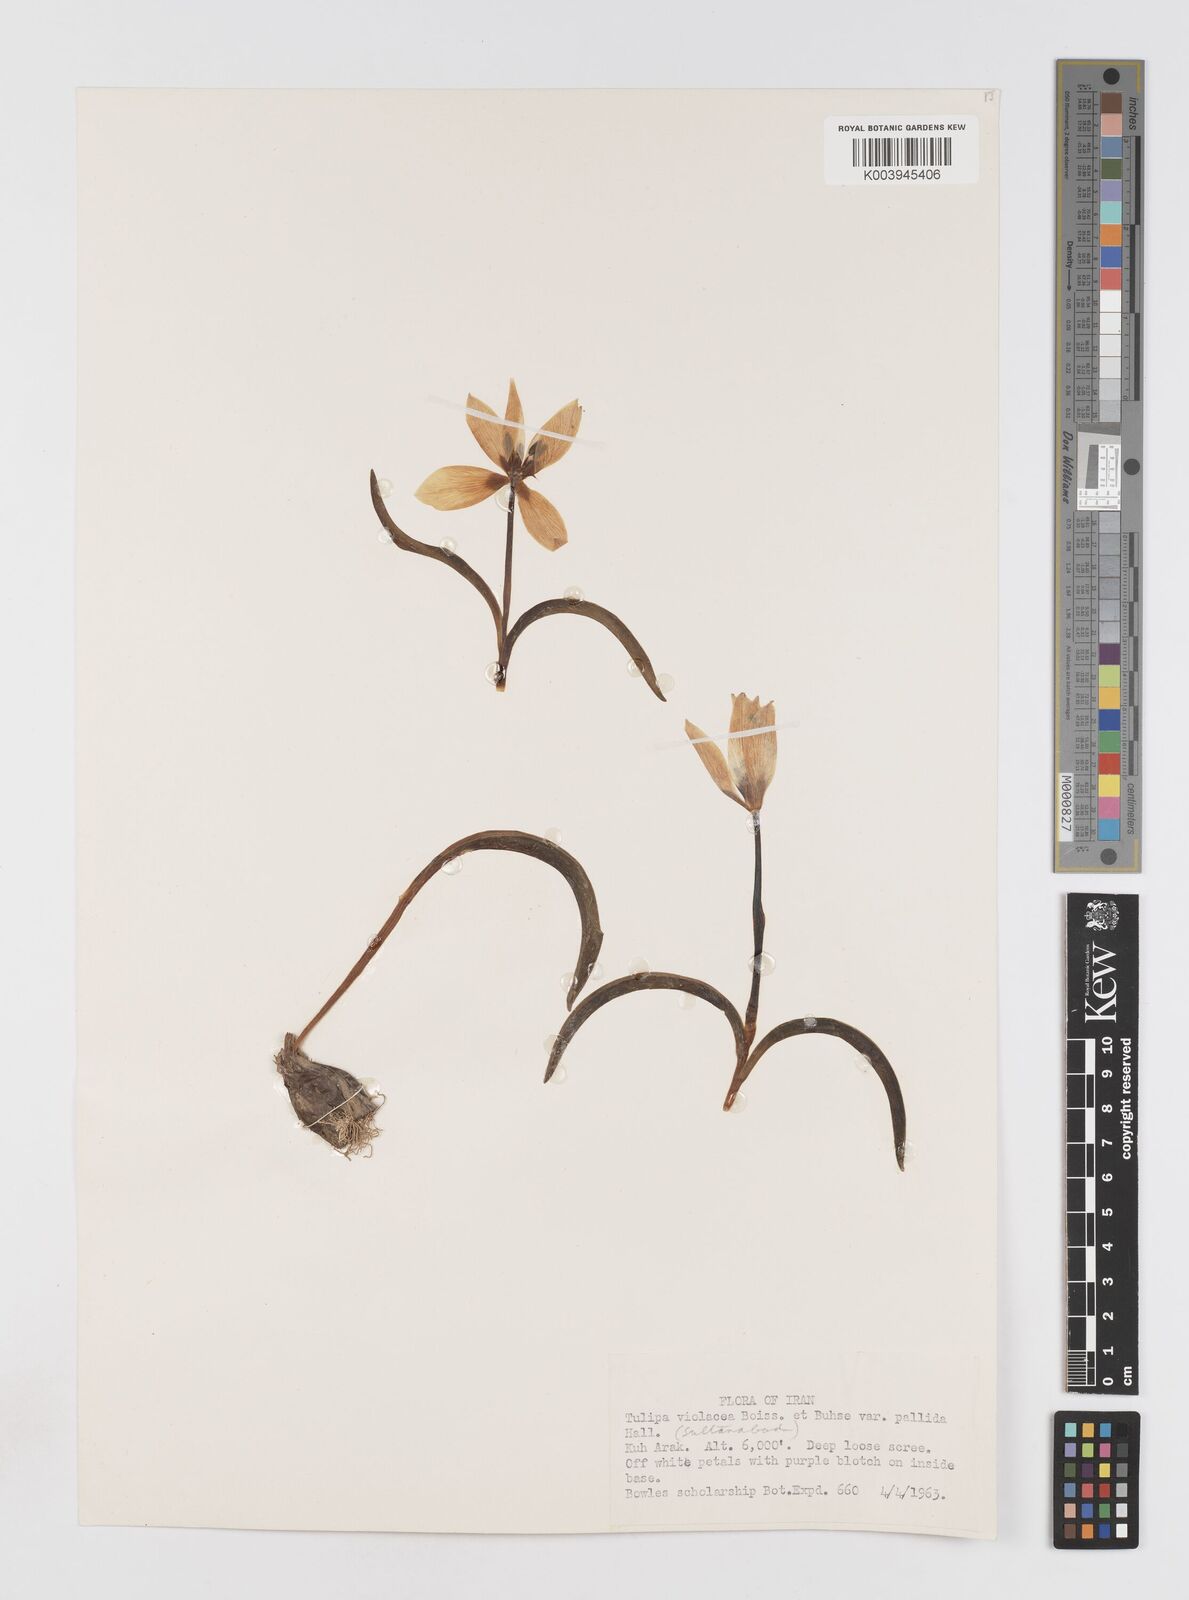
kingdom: Plantae
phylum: Tracheophyta
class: Liliopsida
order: Liliales
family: Liliaceae
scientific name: Liliaceae
